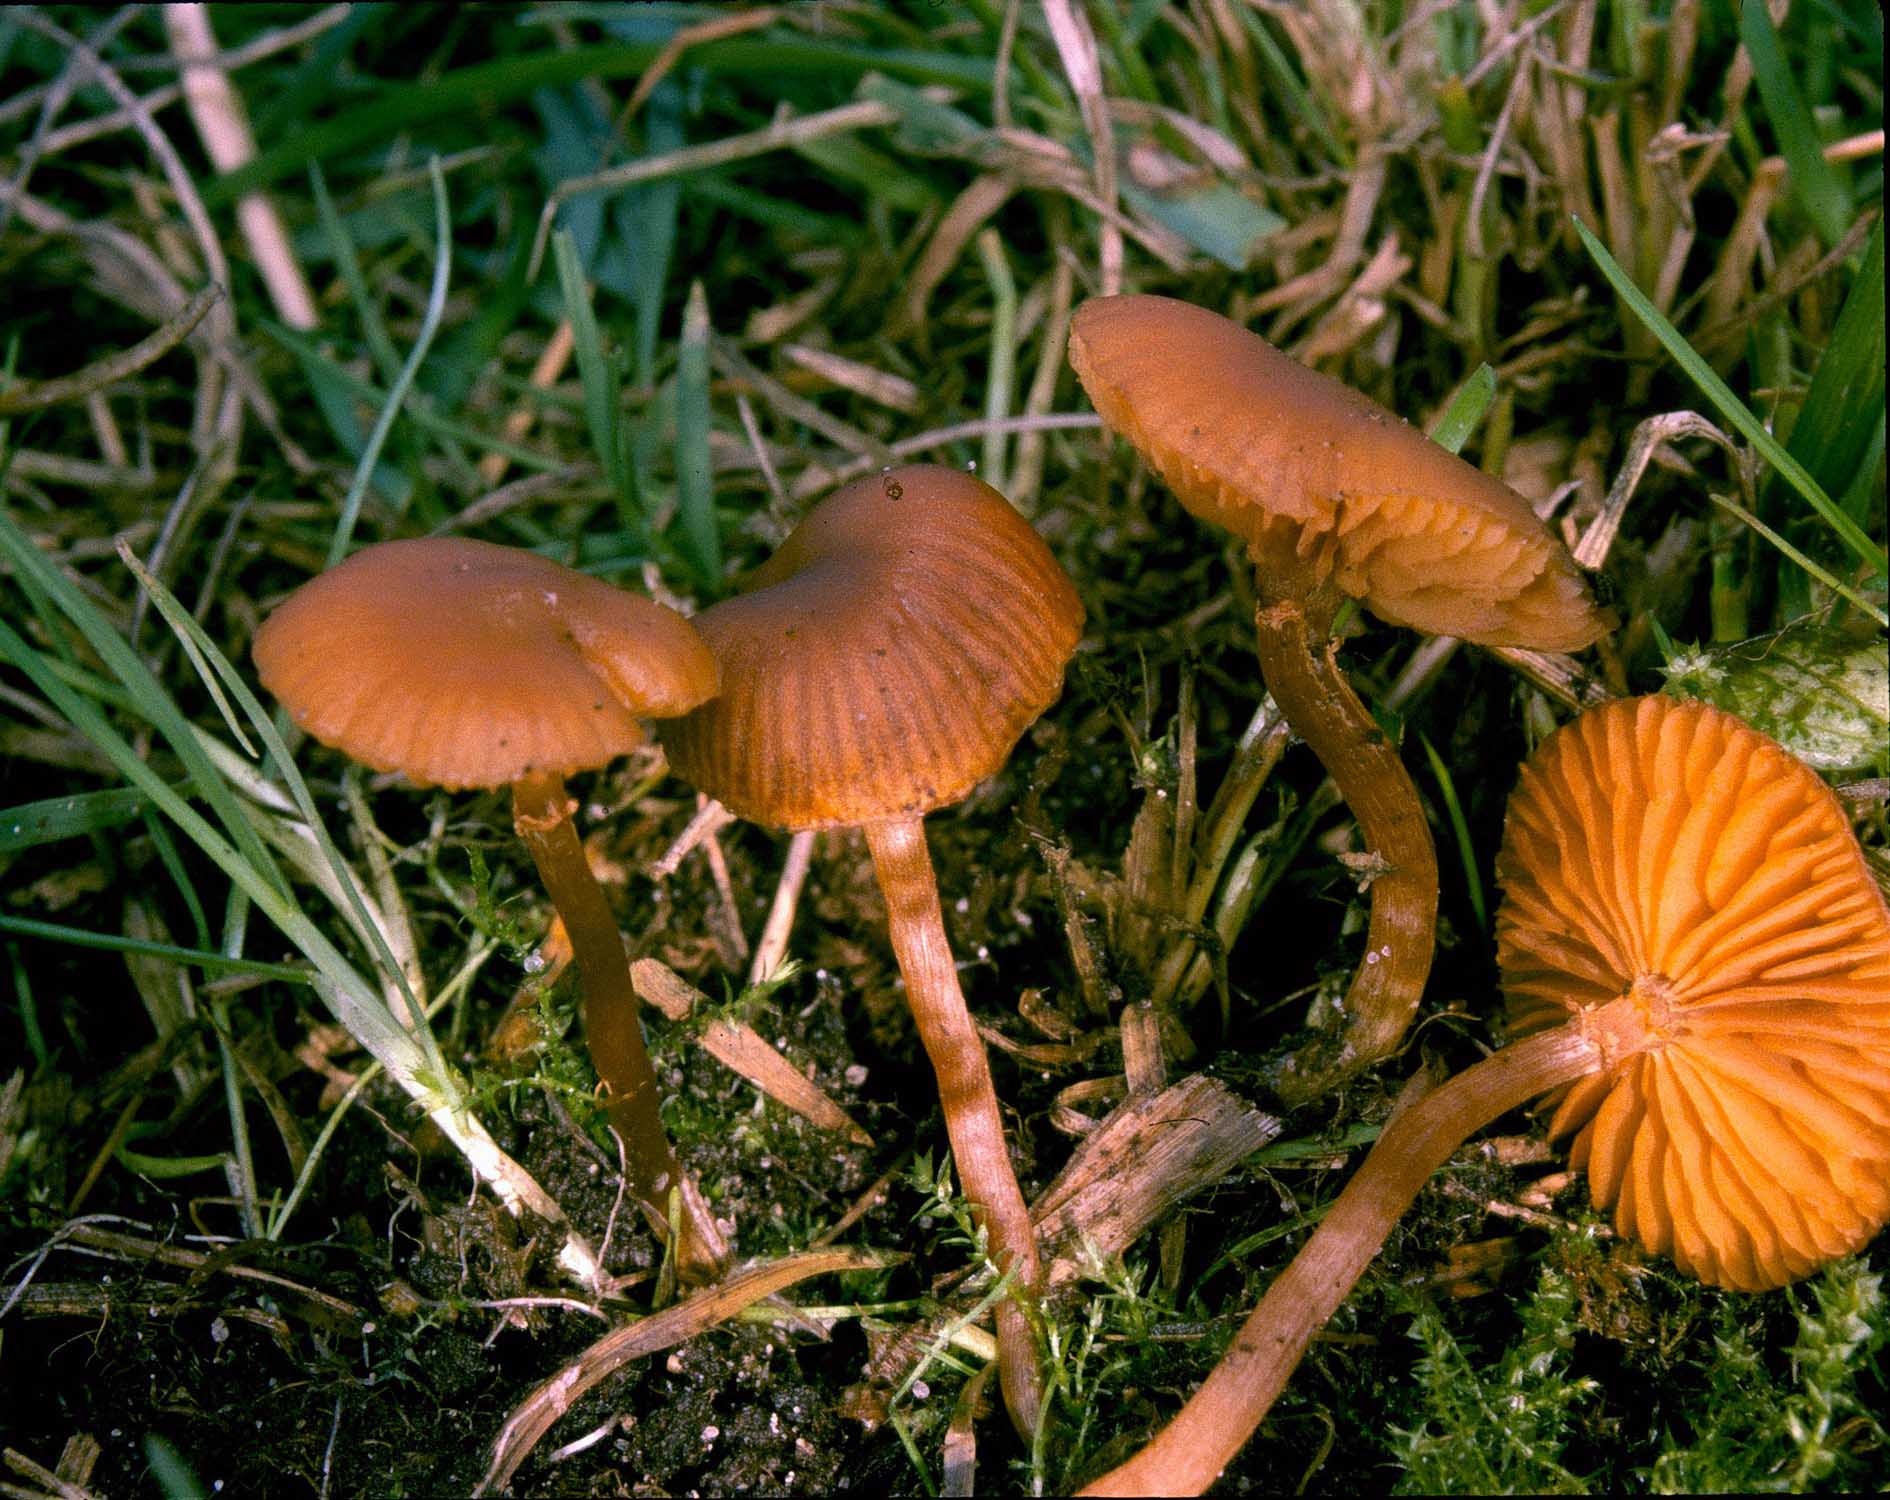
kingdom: Fungi
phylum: Basidiomycota
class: Agaricomycetes
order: Agaricales
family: Hymenogastraceae
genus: Galerina
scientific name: Galerina
